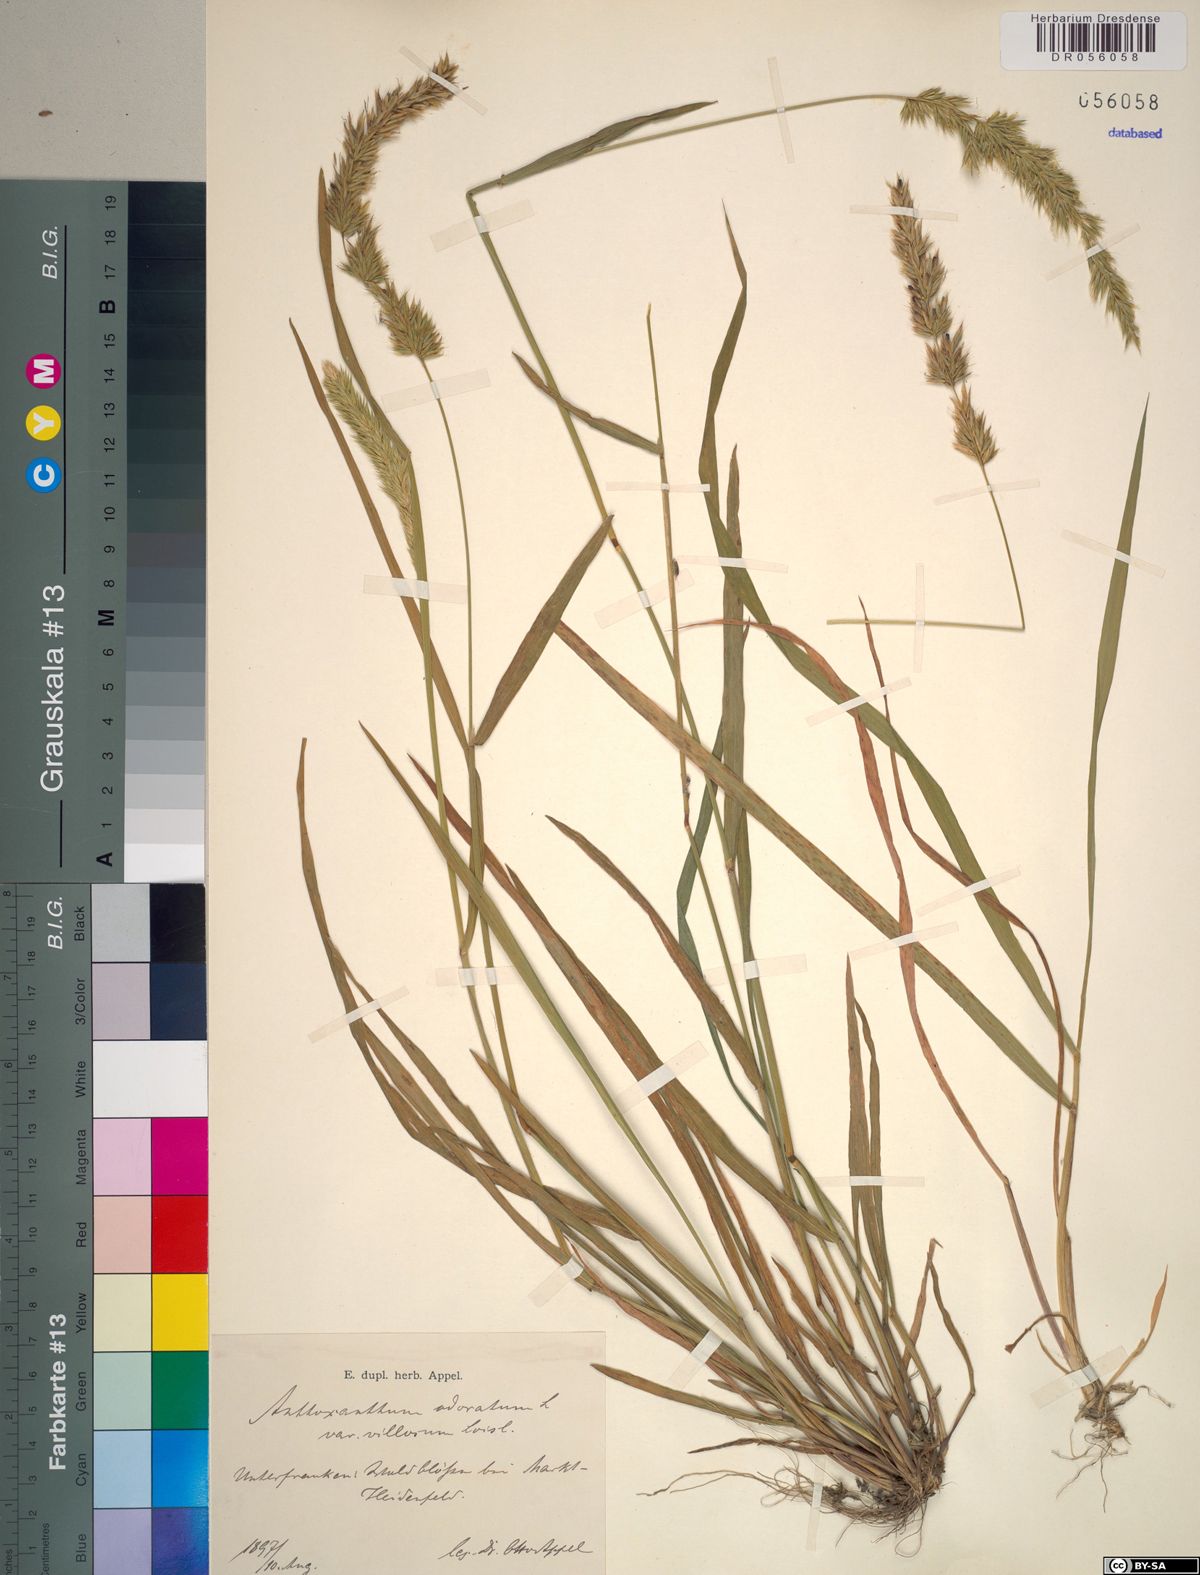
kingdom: Plantae
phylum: Tracheophyta
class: Liliopsida
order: Poales
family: Poaceae
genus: Anthoxanthum
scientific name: Anthoxanthum odoratum
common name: Sweet vernalgrass
